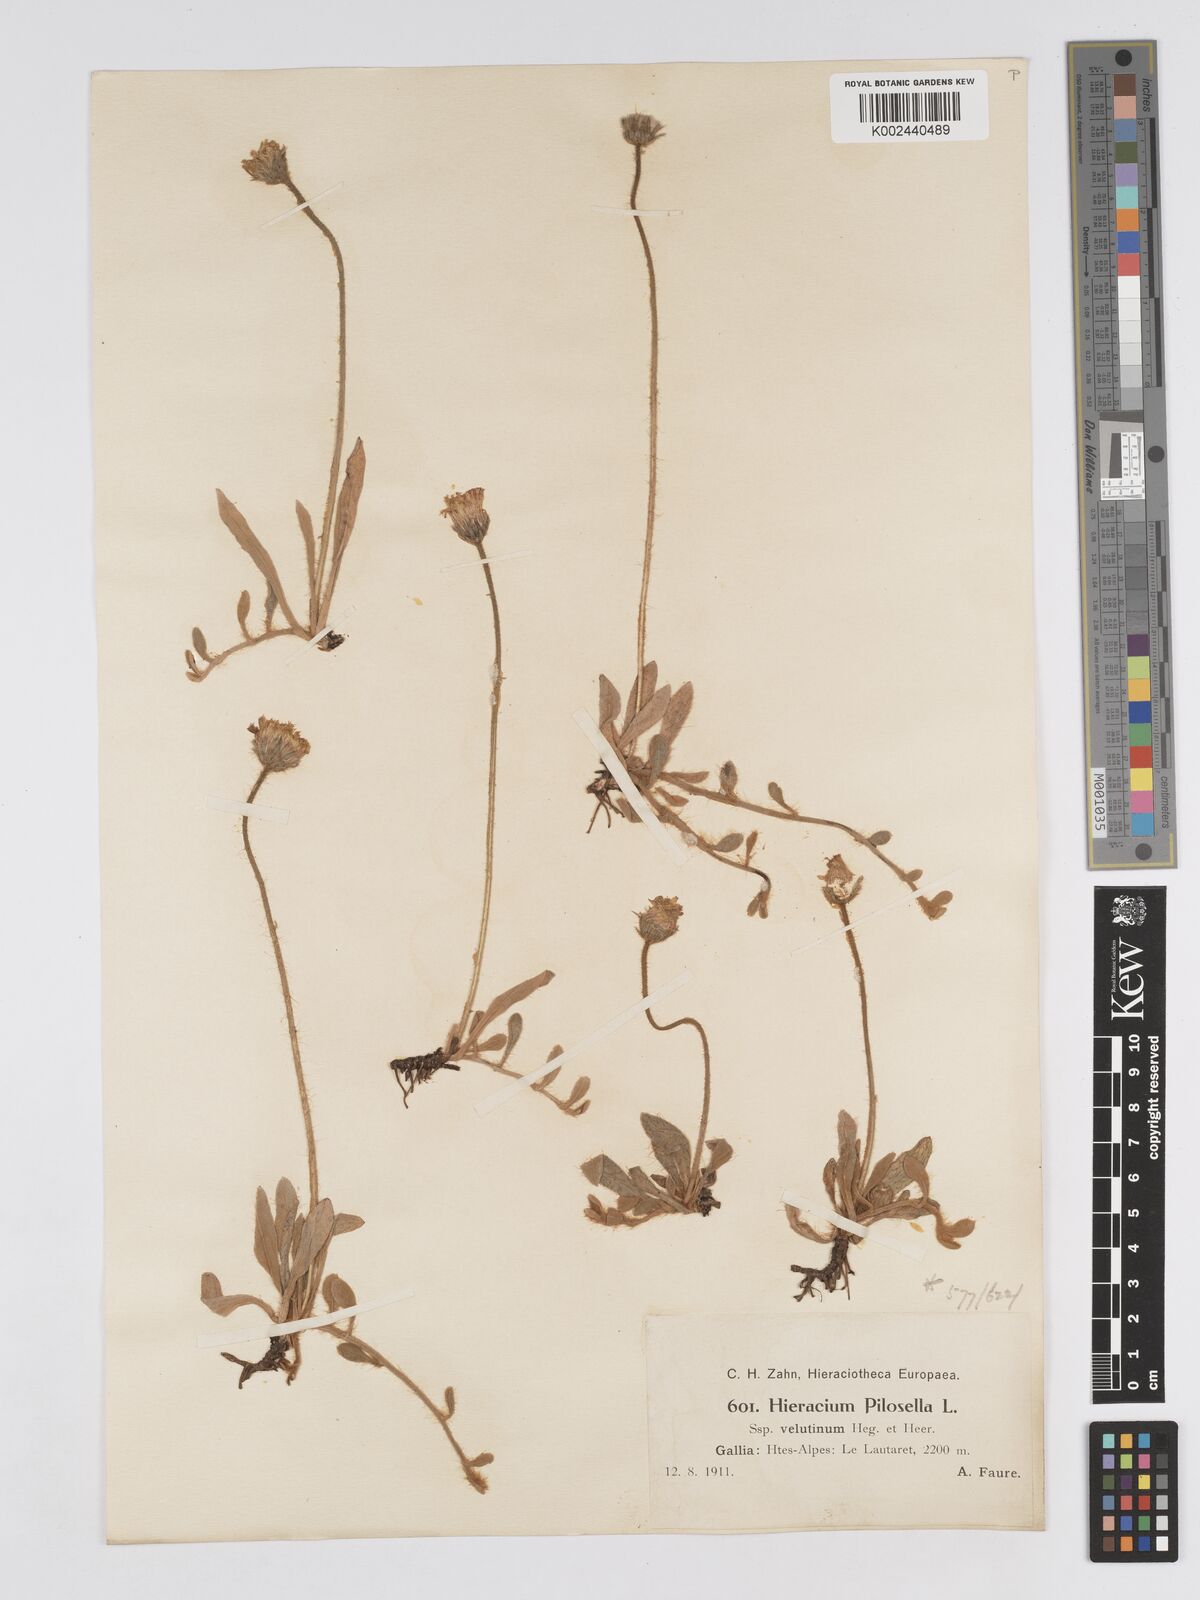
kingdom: Plantae
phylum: Tracheophyta
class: Magnoliopsida
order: Asterales
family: Asteraceae
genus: Pilosella
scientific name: Pilosella velutina
